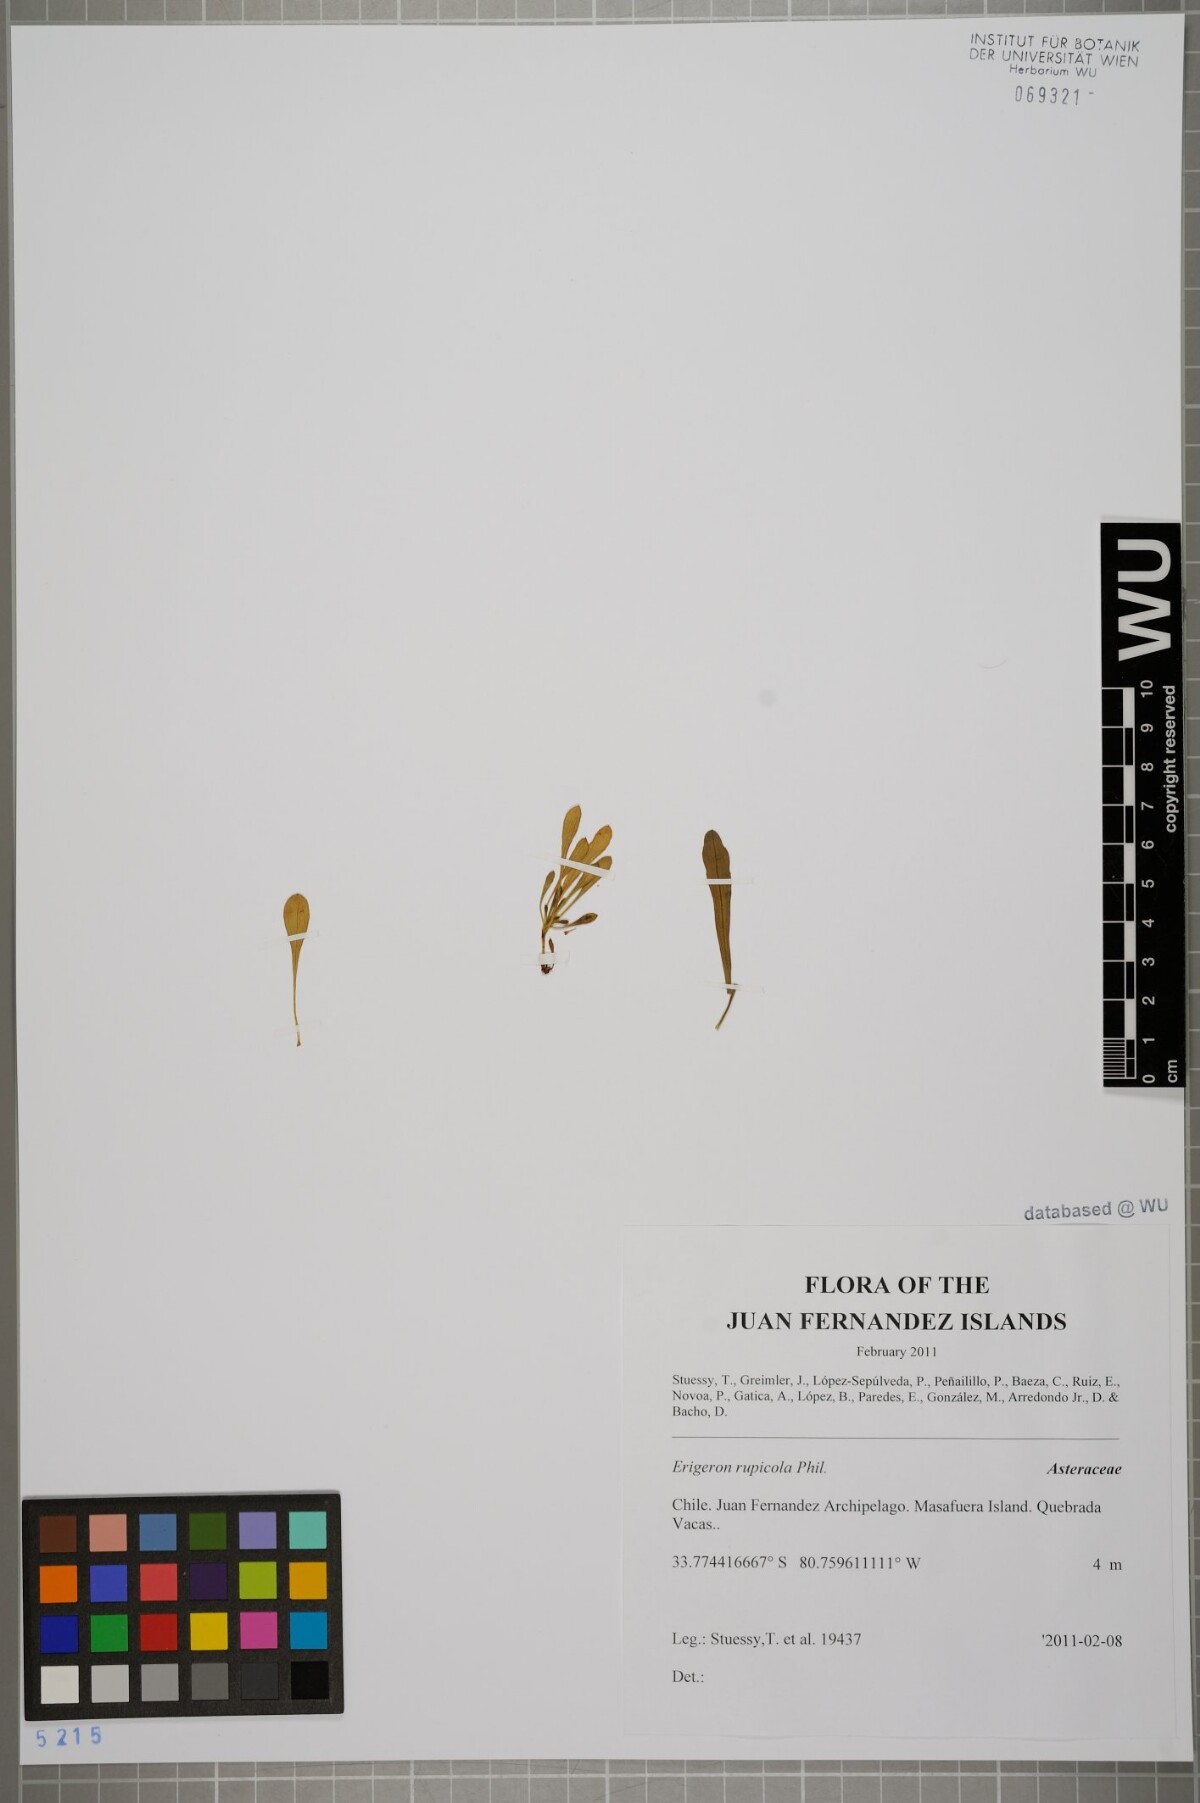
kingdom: Plantae
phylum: Tracheophyta
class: Magnoliopsida
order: Asterales
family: Asteraceae
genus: Erigeron
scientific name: Erigeron rupicola
